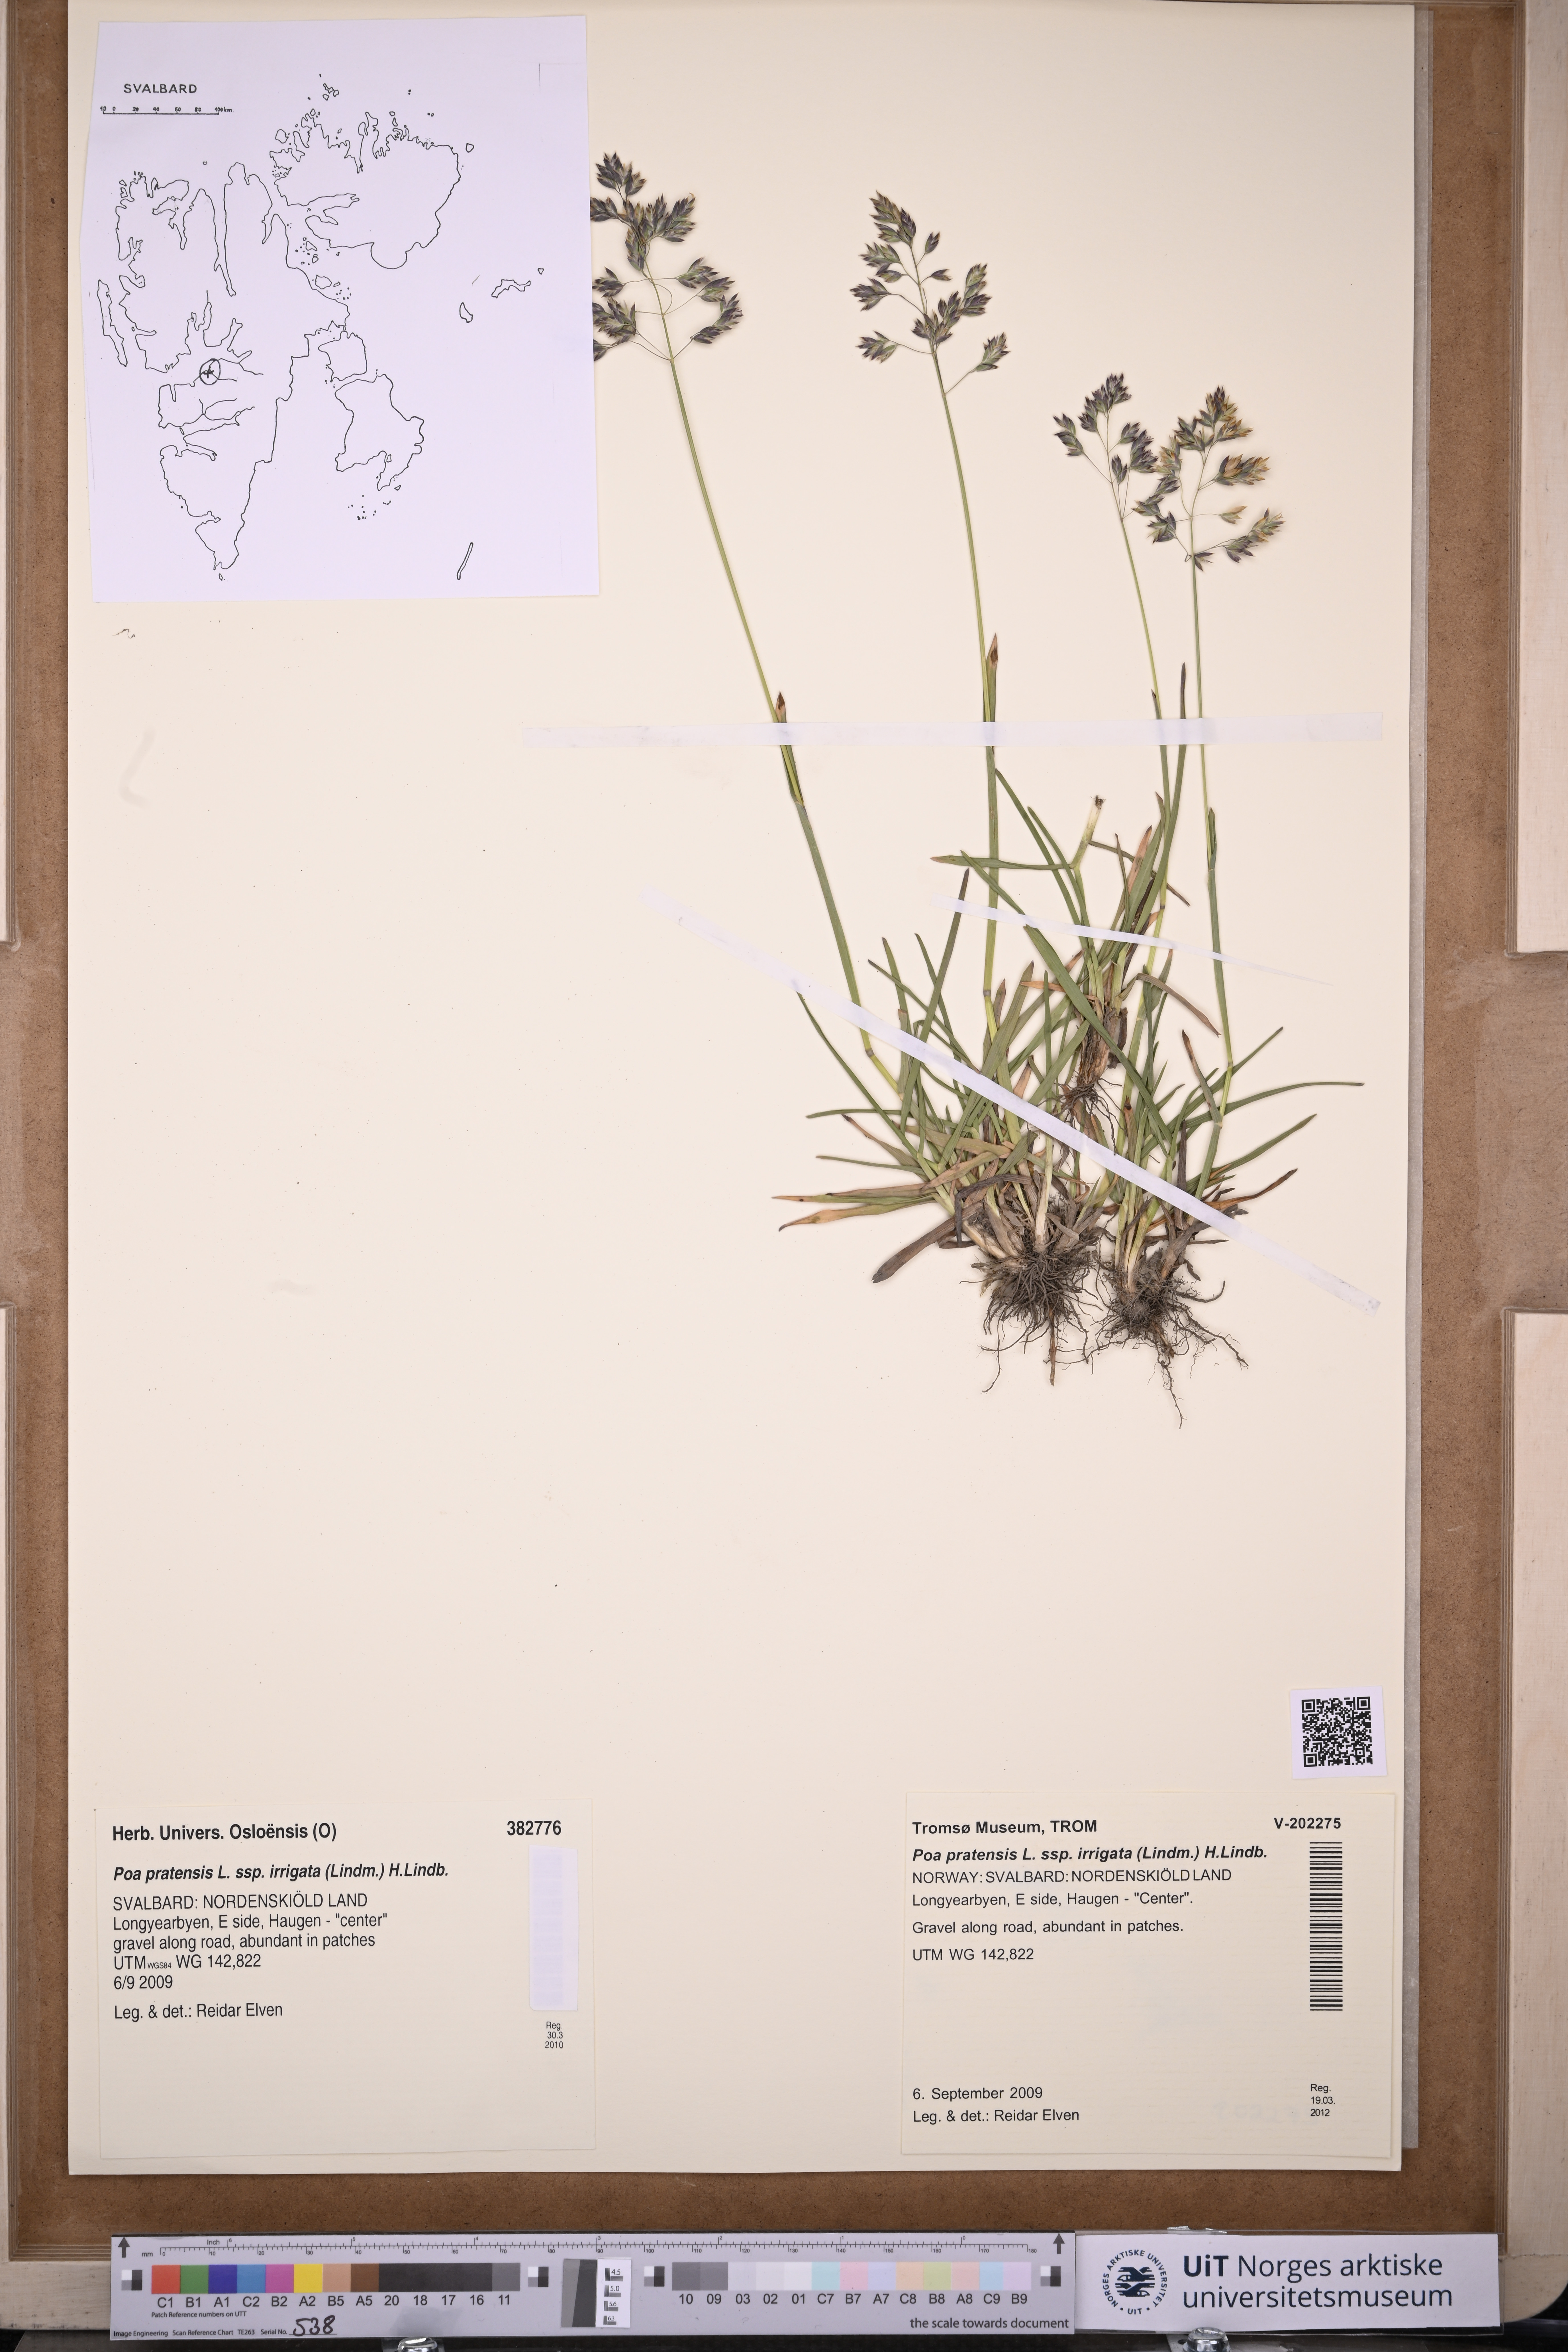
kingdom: Plantae
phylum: Tracheophyta
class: Liliopsida
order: Poales
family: Poaceae
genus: Poa
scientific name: Poa humilis
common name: Spreading meadow-grass
